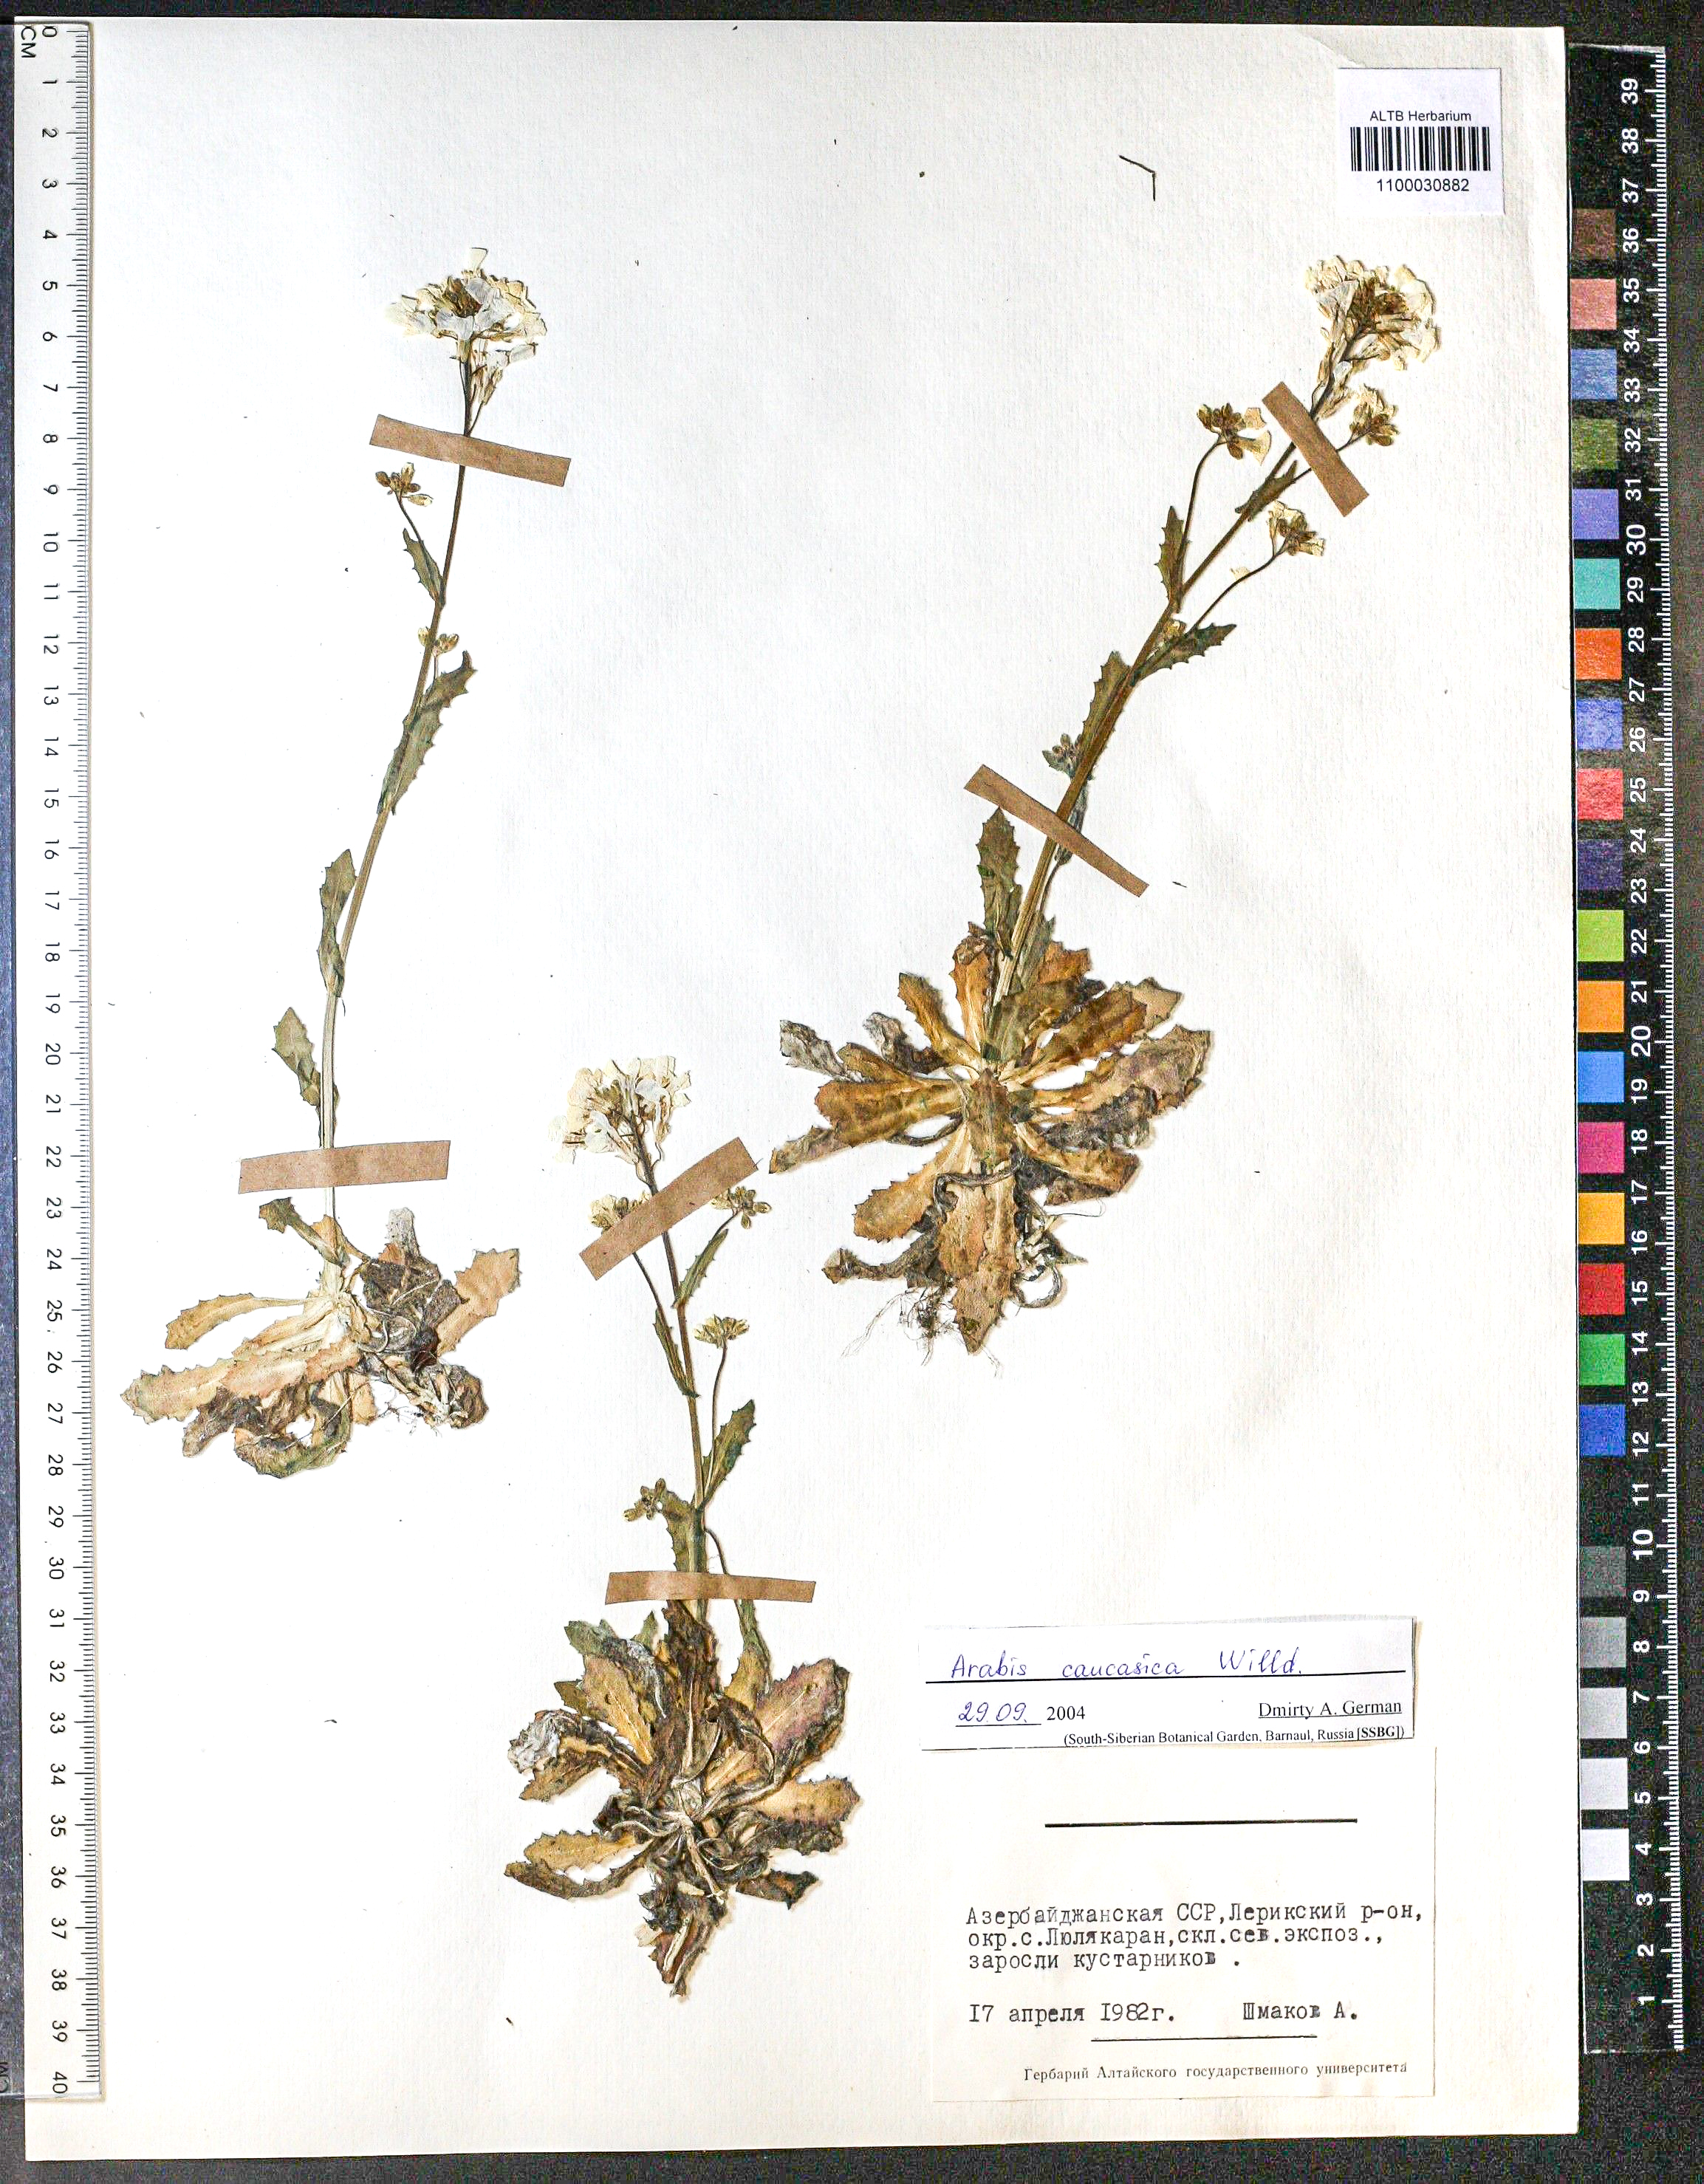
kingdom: Plantae
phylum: Tracheophyta
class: Magnoliopsida
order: Brassicales
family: Brassicaceae
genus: Arabis
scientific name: Arabis caucasica
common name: Gray rockcress
